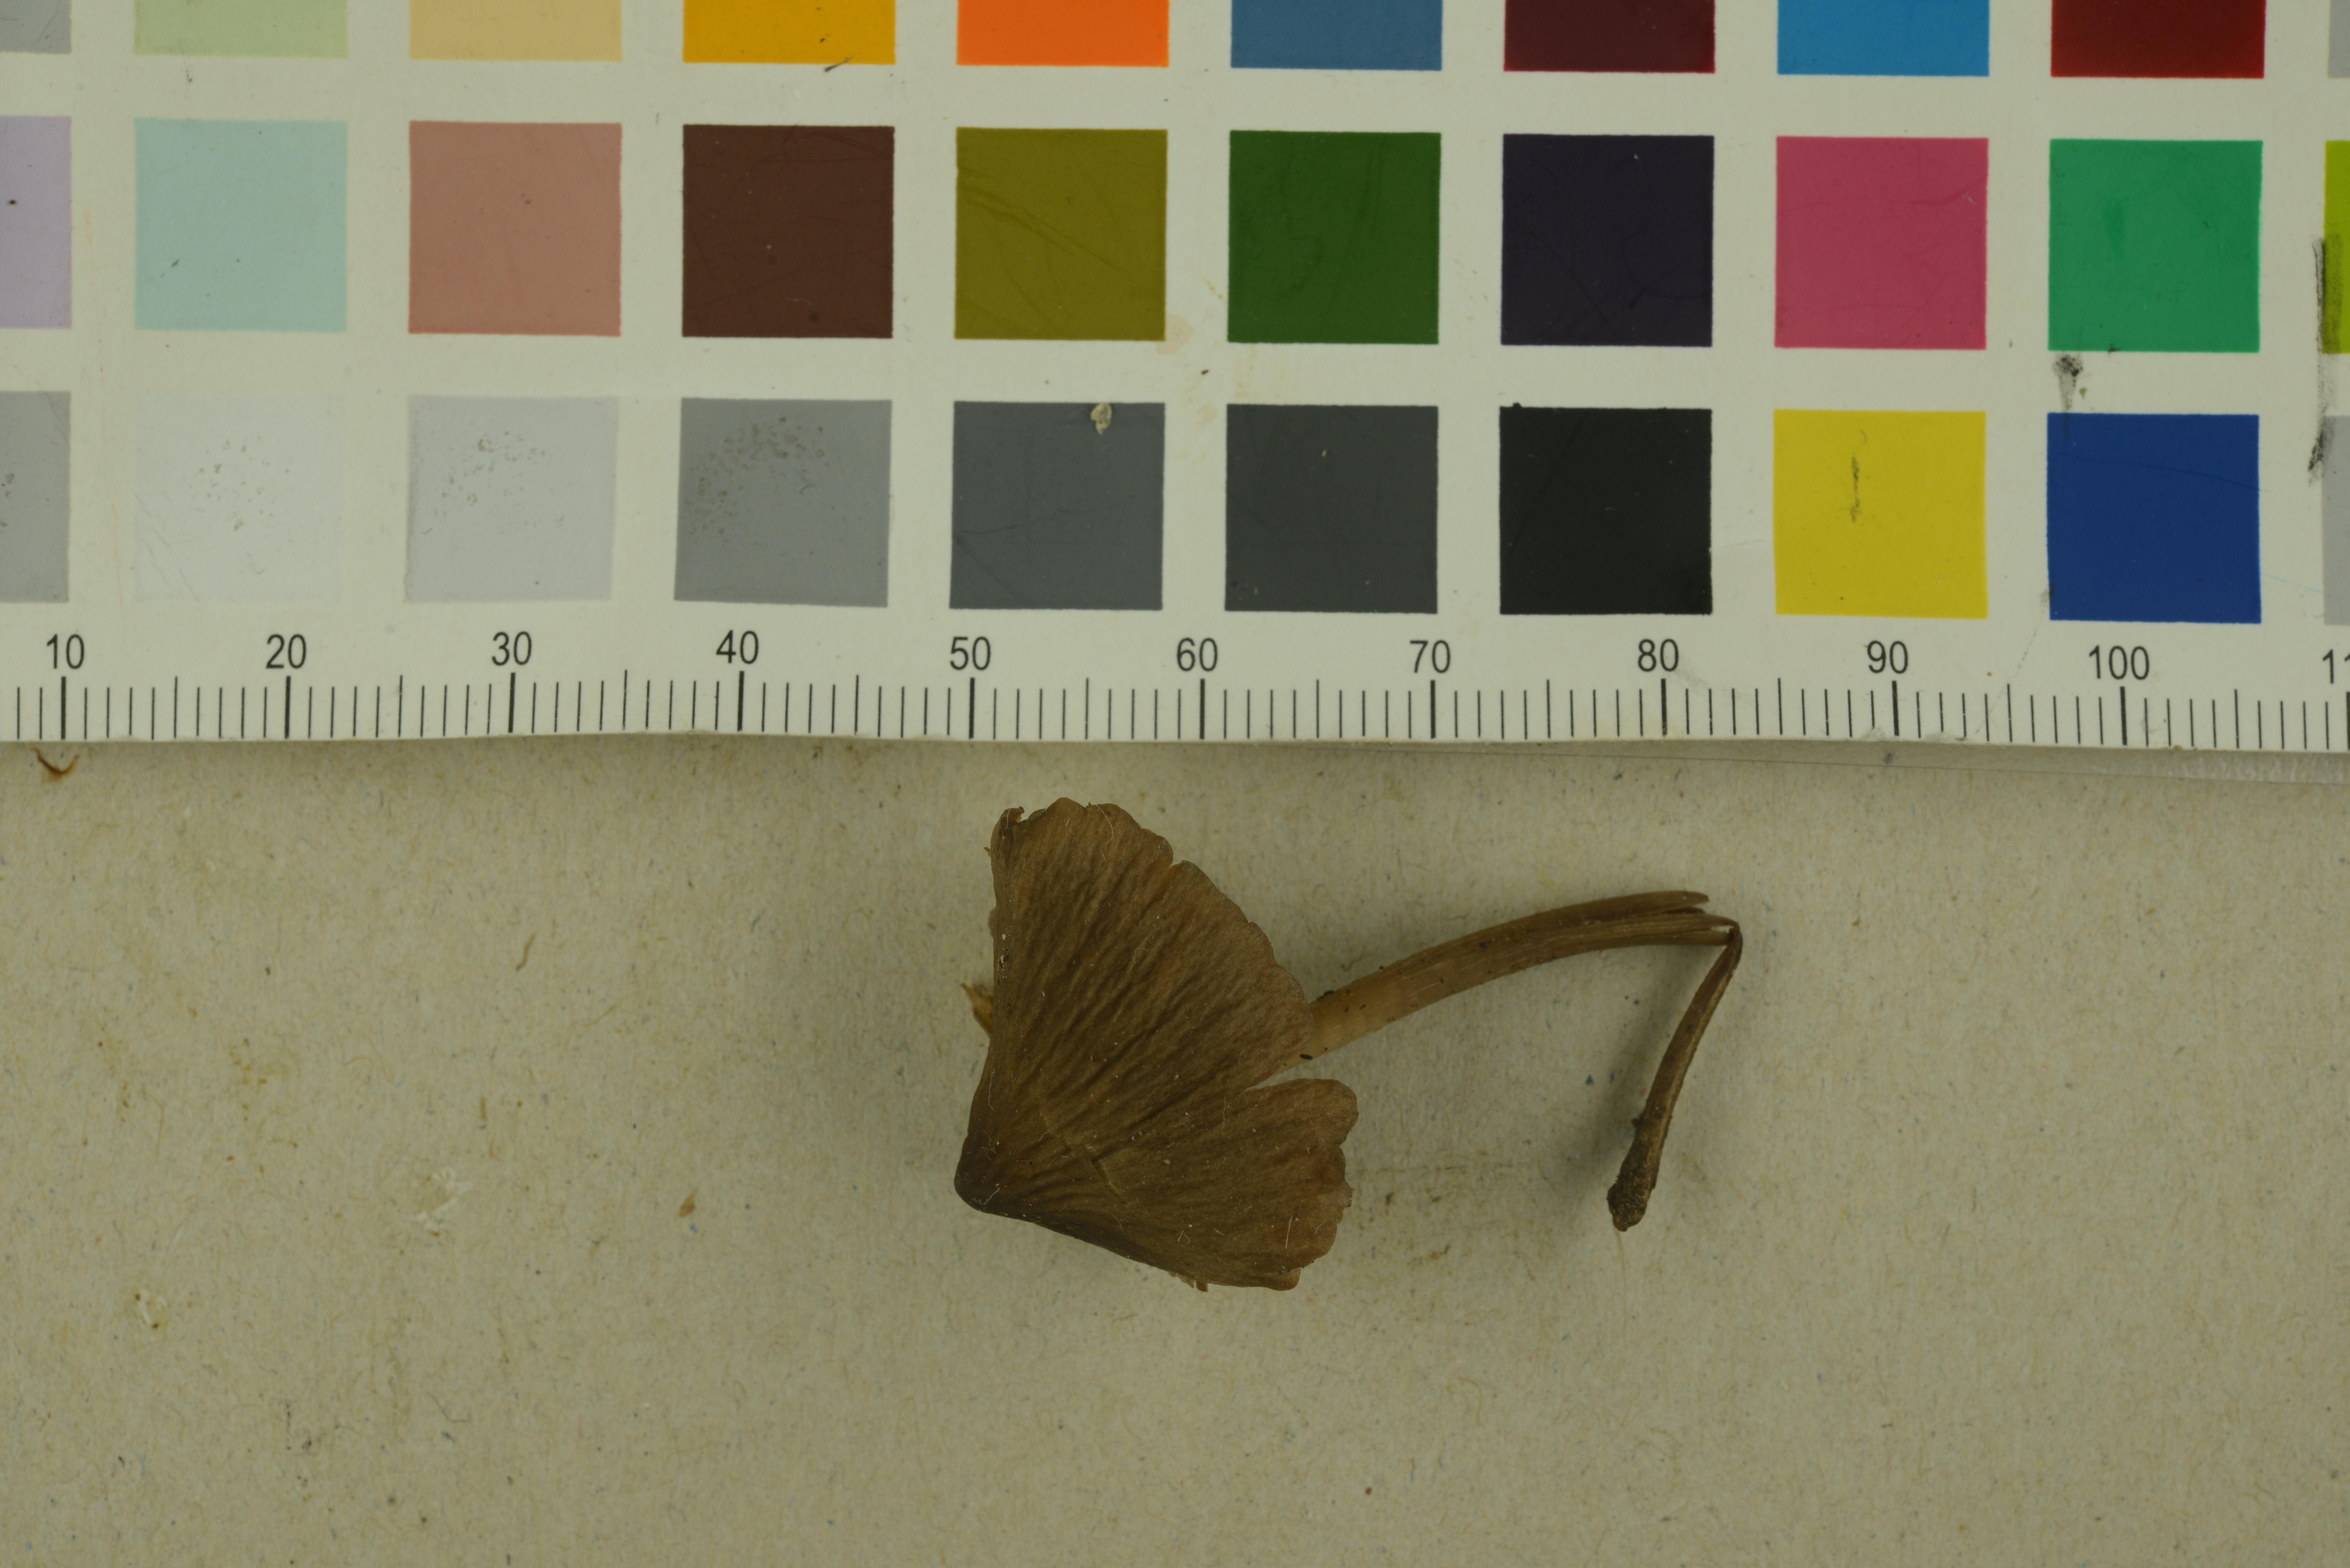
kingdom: Fungi
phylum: Basidiomycota
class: Agaricomycetes
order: Agaricales
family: Mycenaceae
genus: Mycopan
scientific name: Mycopan scabripes
